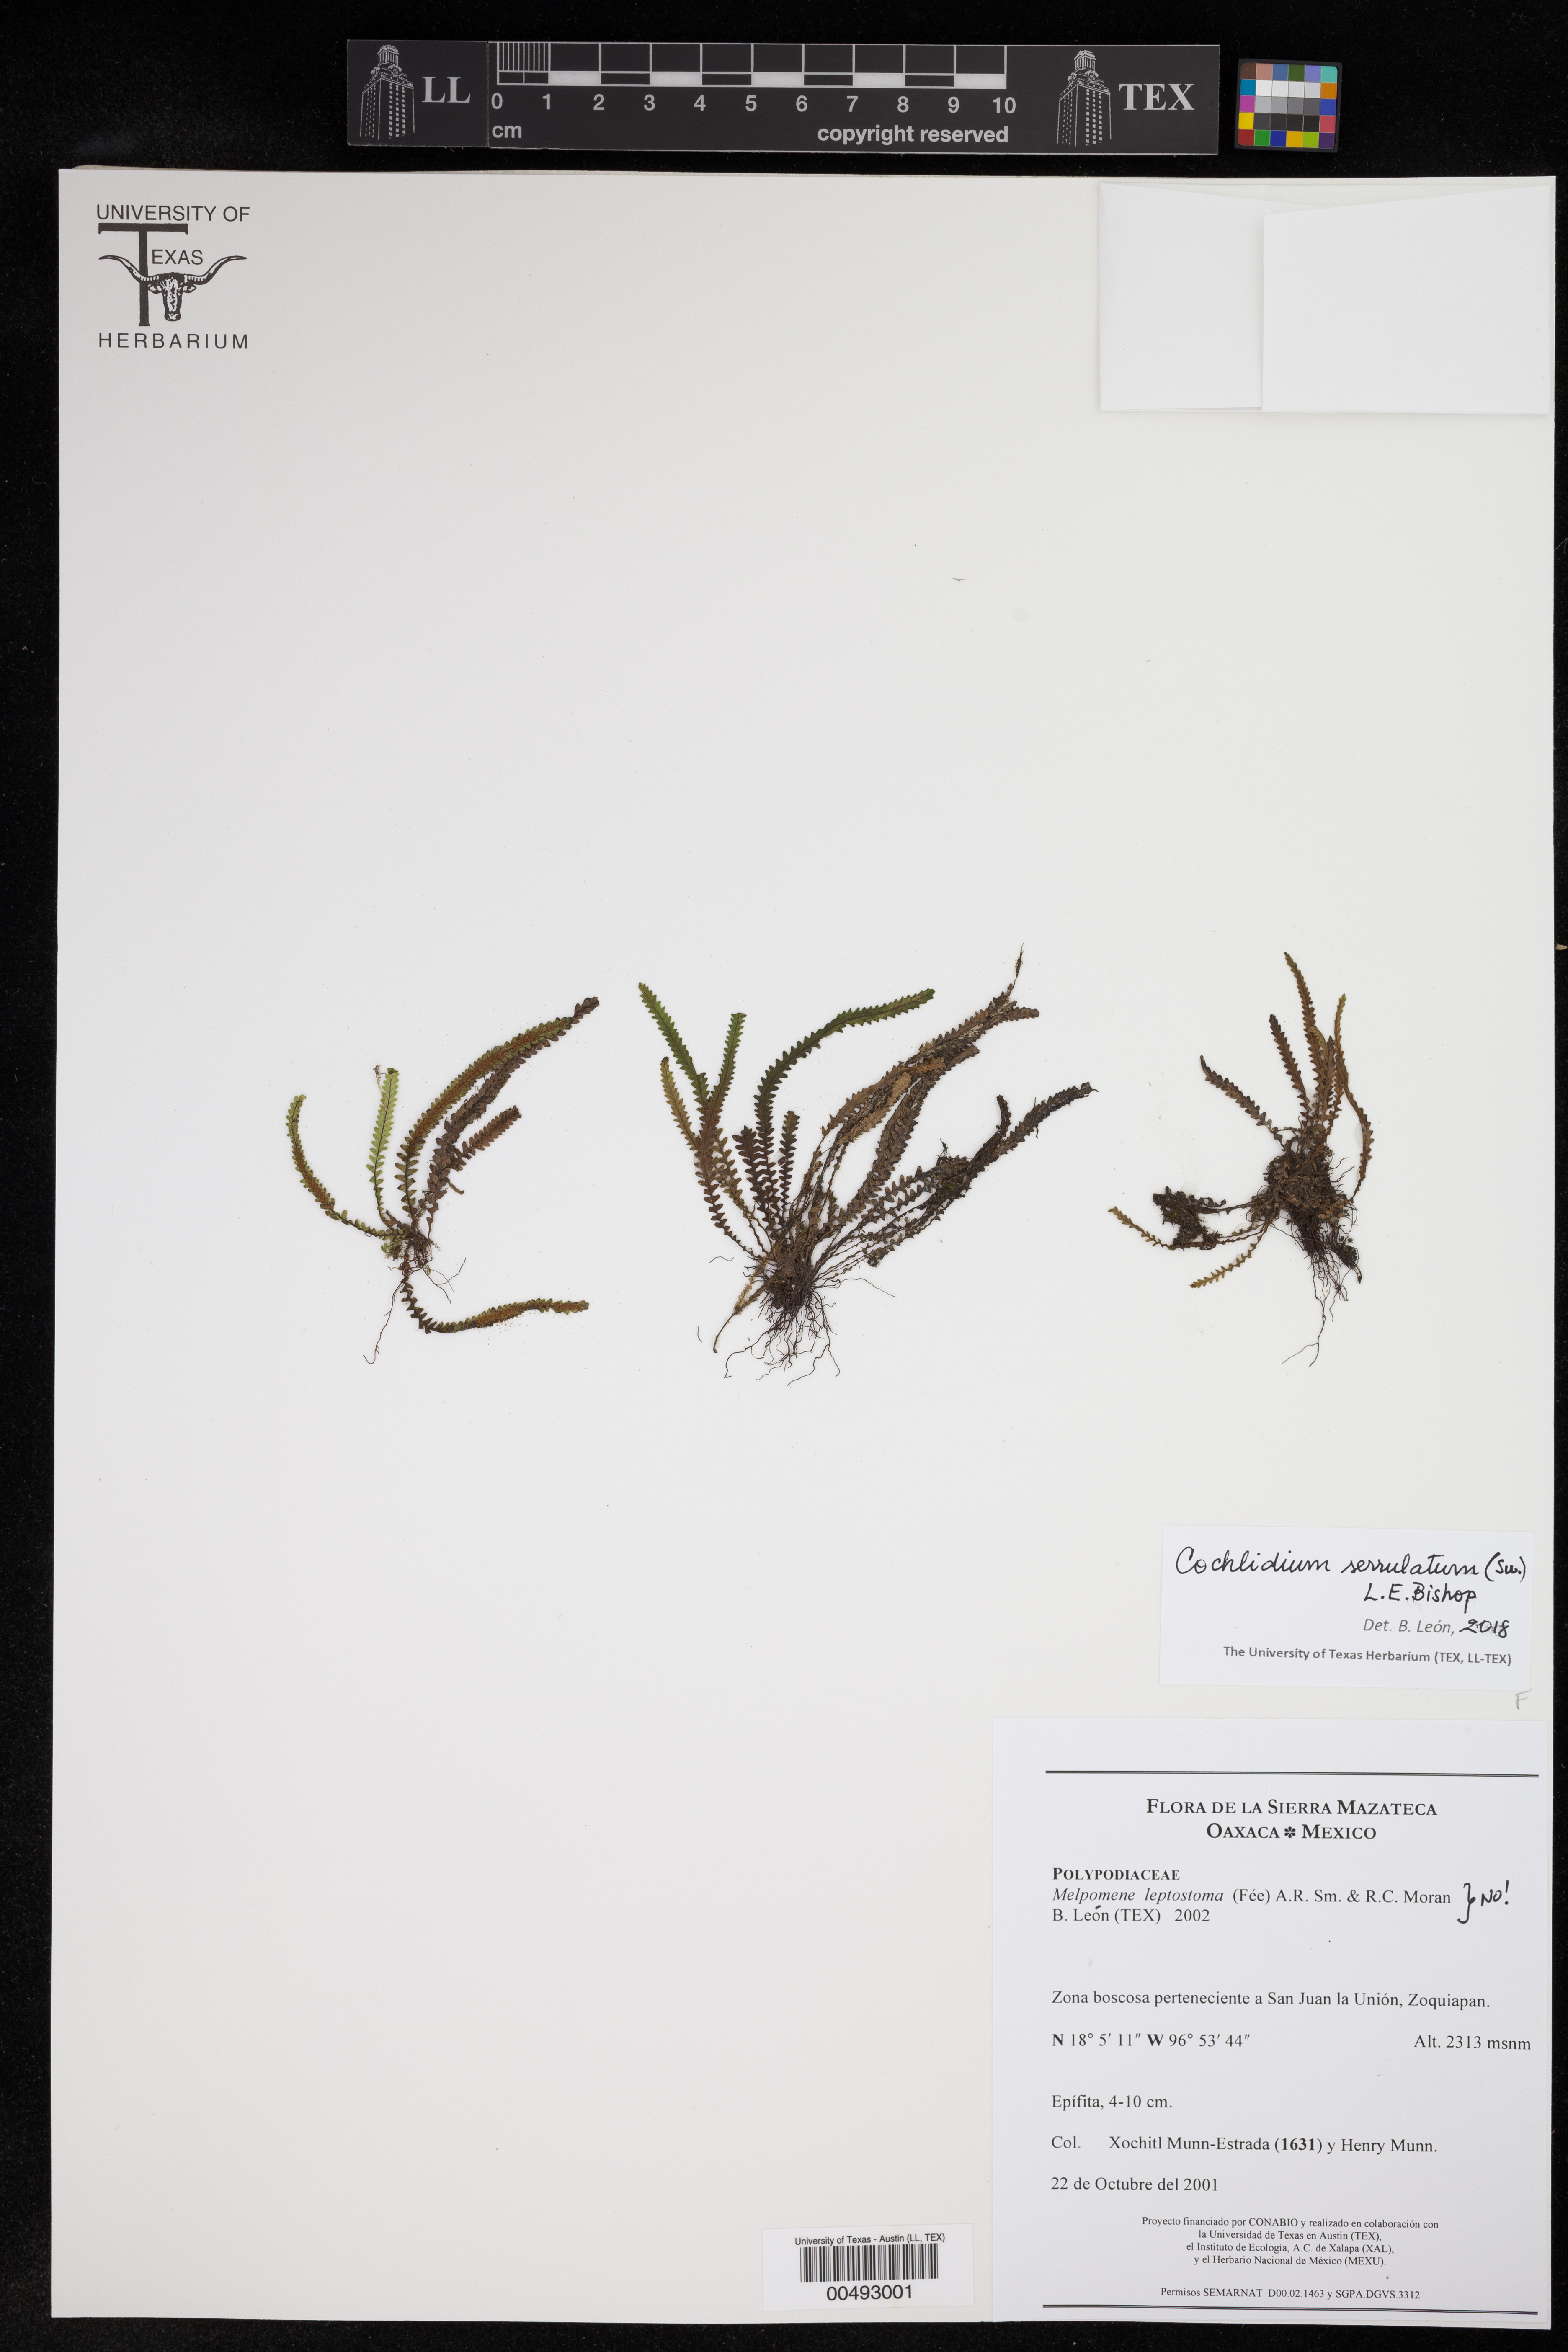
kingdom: Plantae
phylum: Tracheophyta
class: Polypodiopsida
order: Polypodiales
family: Polypodiaceae
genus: Cochlidium
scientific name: Cochlidium serrulatum
